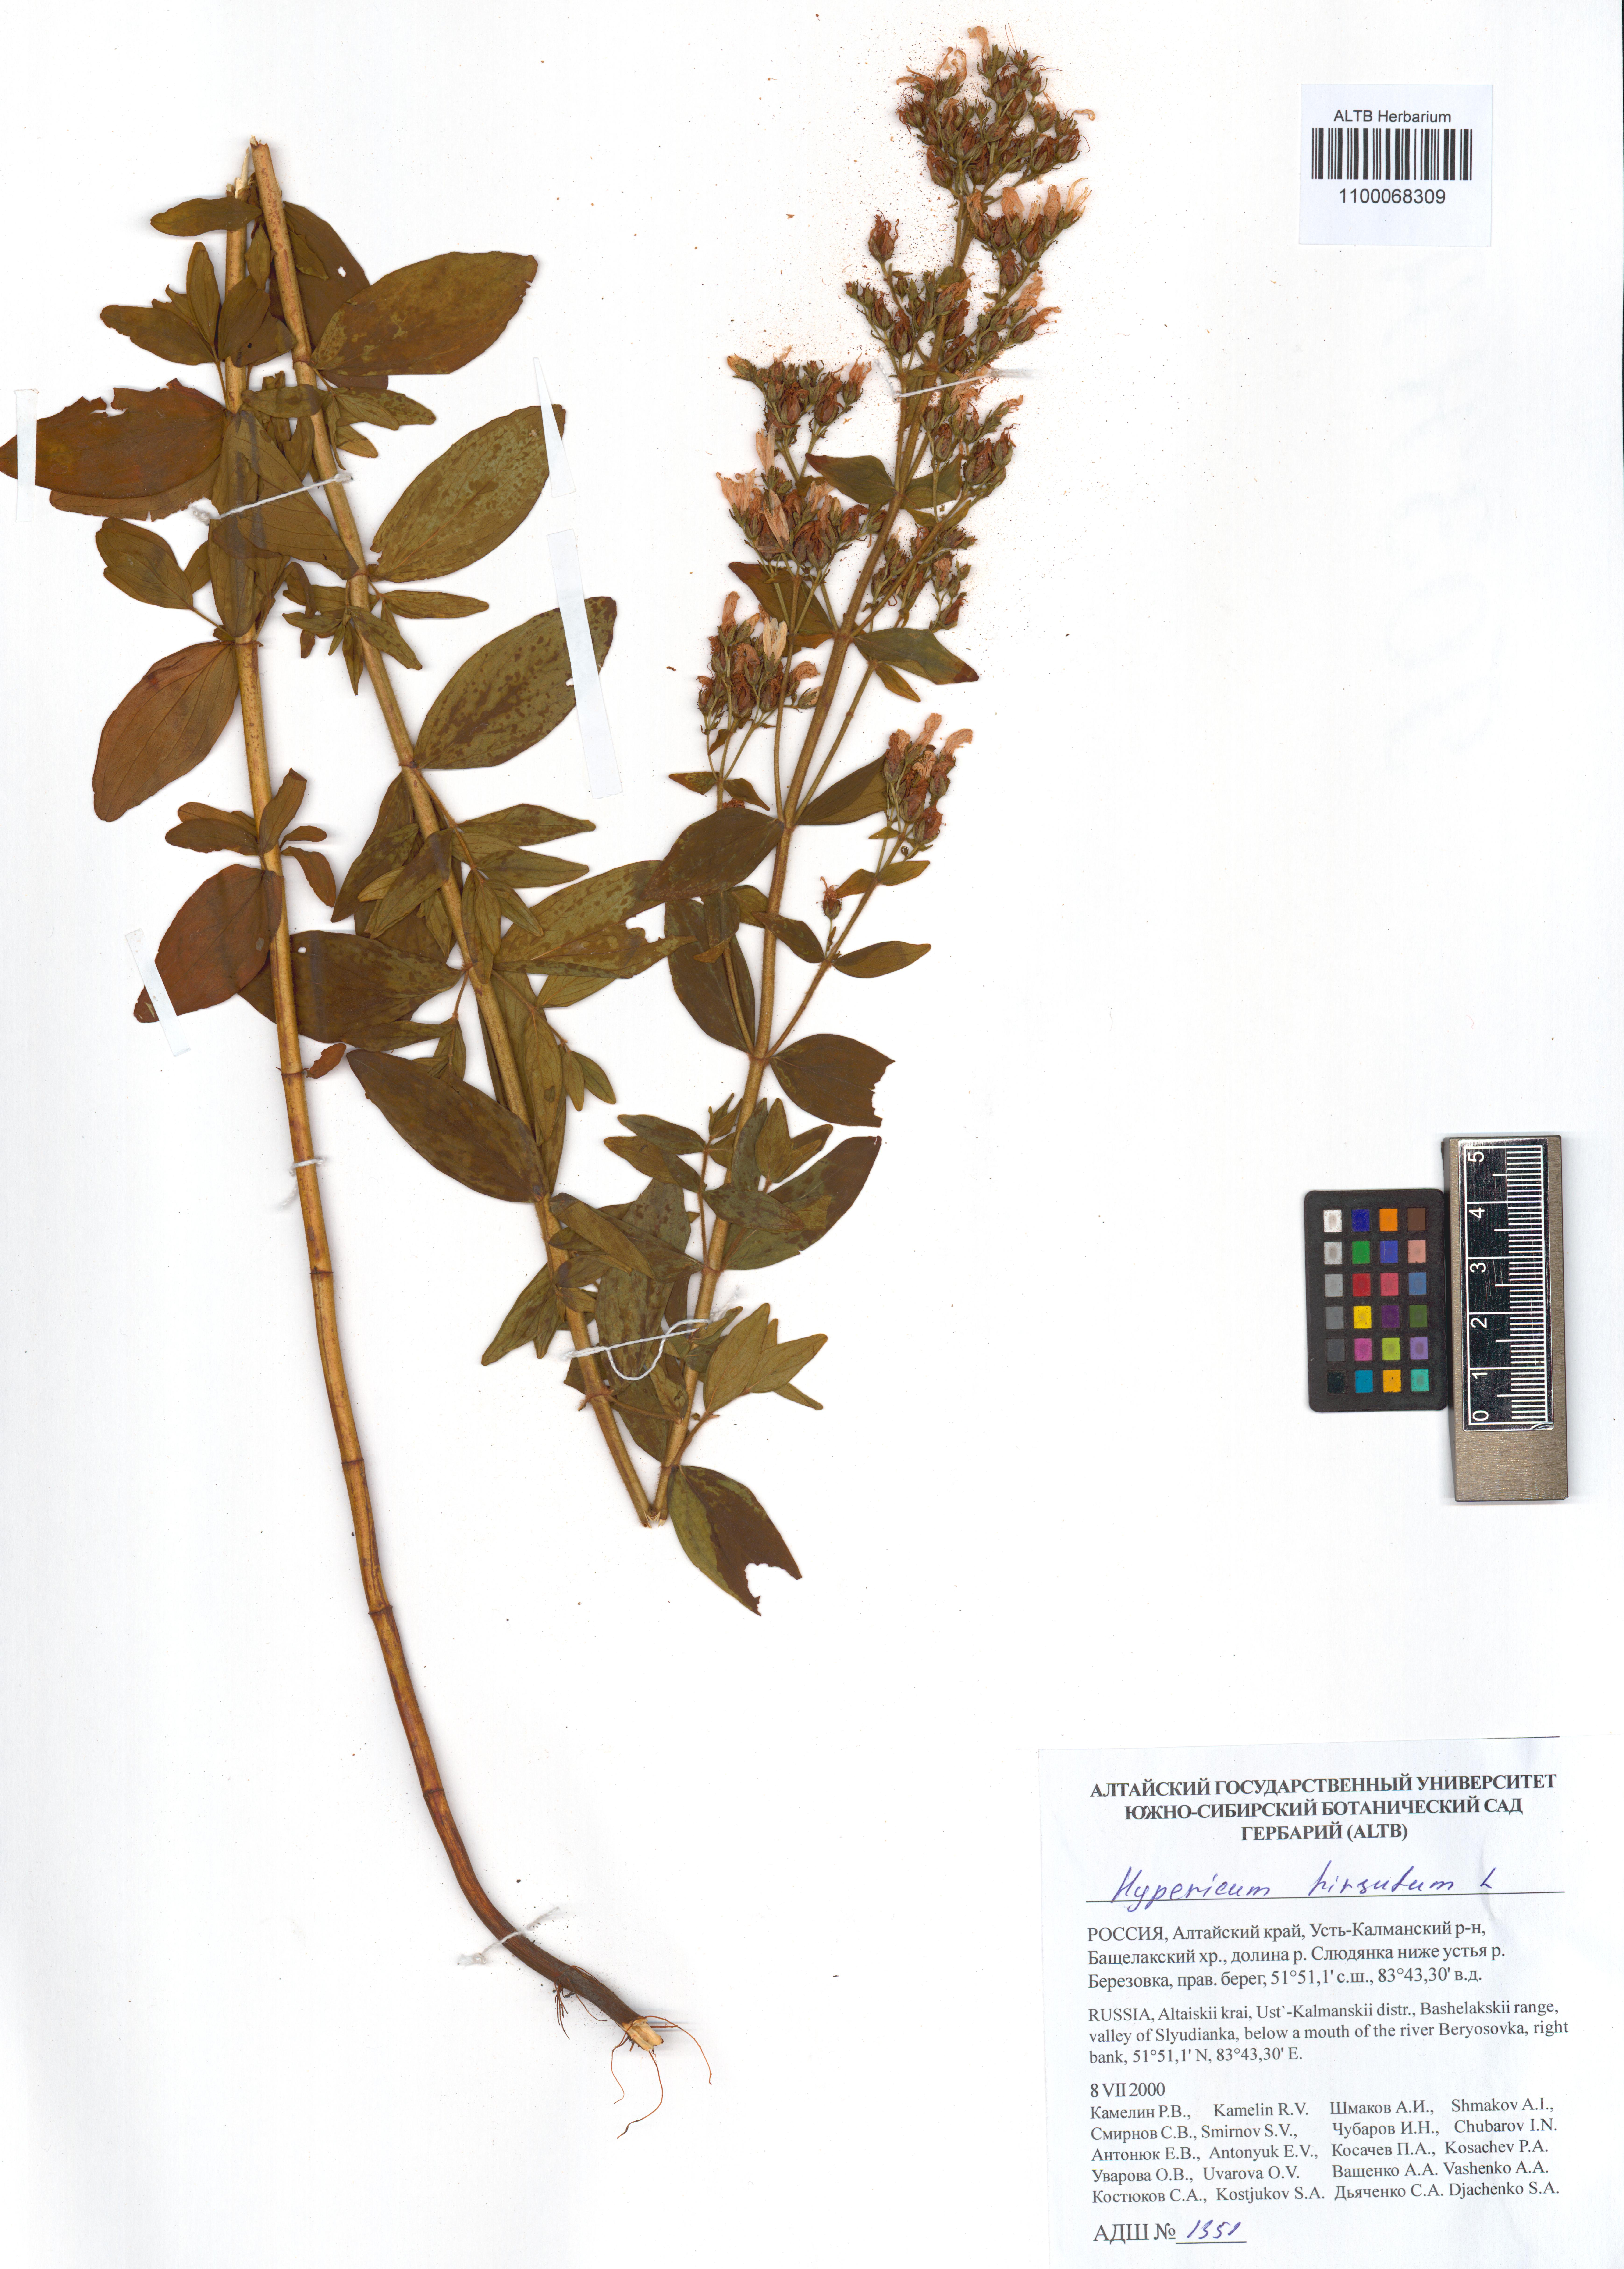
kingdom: Plantae
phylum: Tracheophyta
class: Magnoliopsida
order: Malpighiales
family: Hypericaceae
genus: Hypericum
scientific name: Hypericum hirsutum
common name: Hairy st. john's-wort
